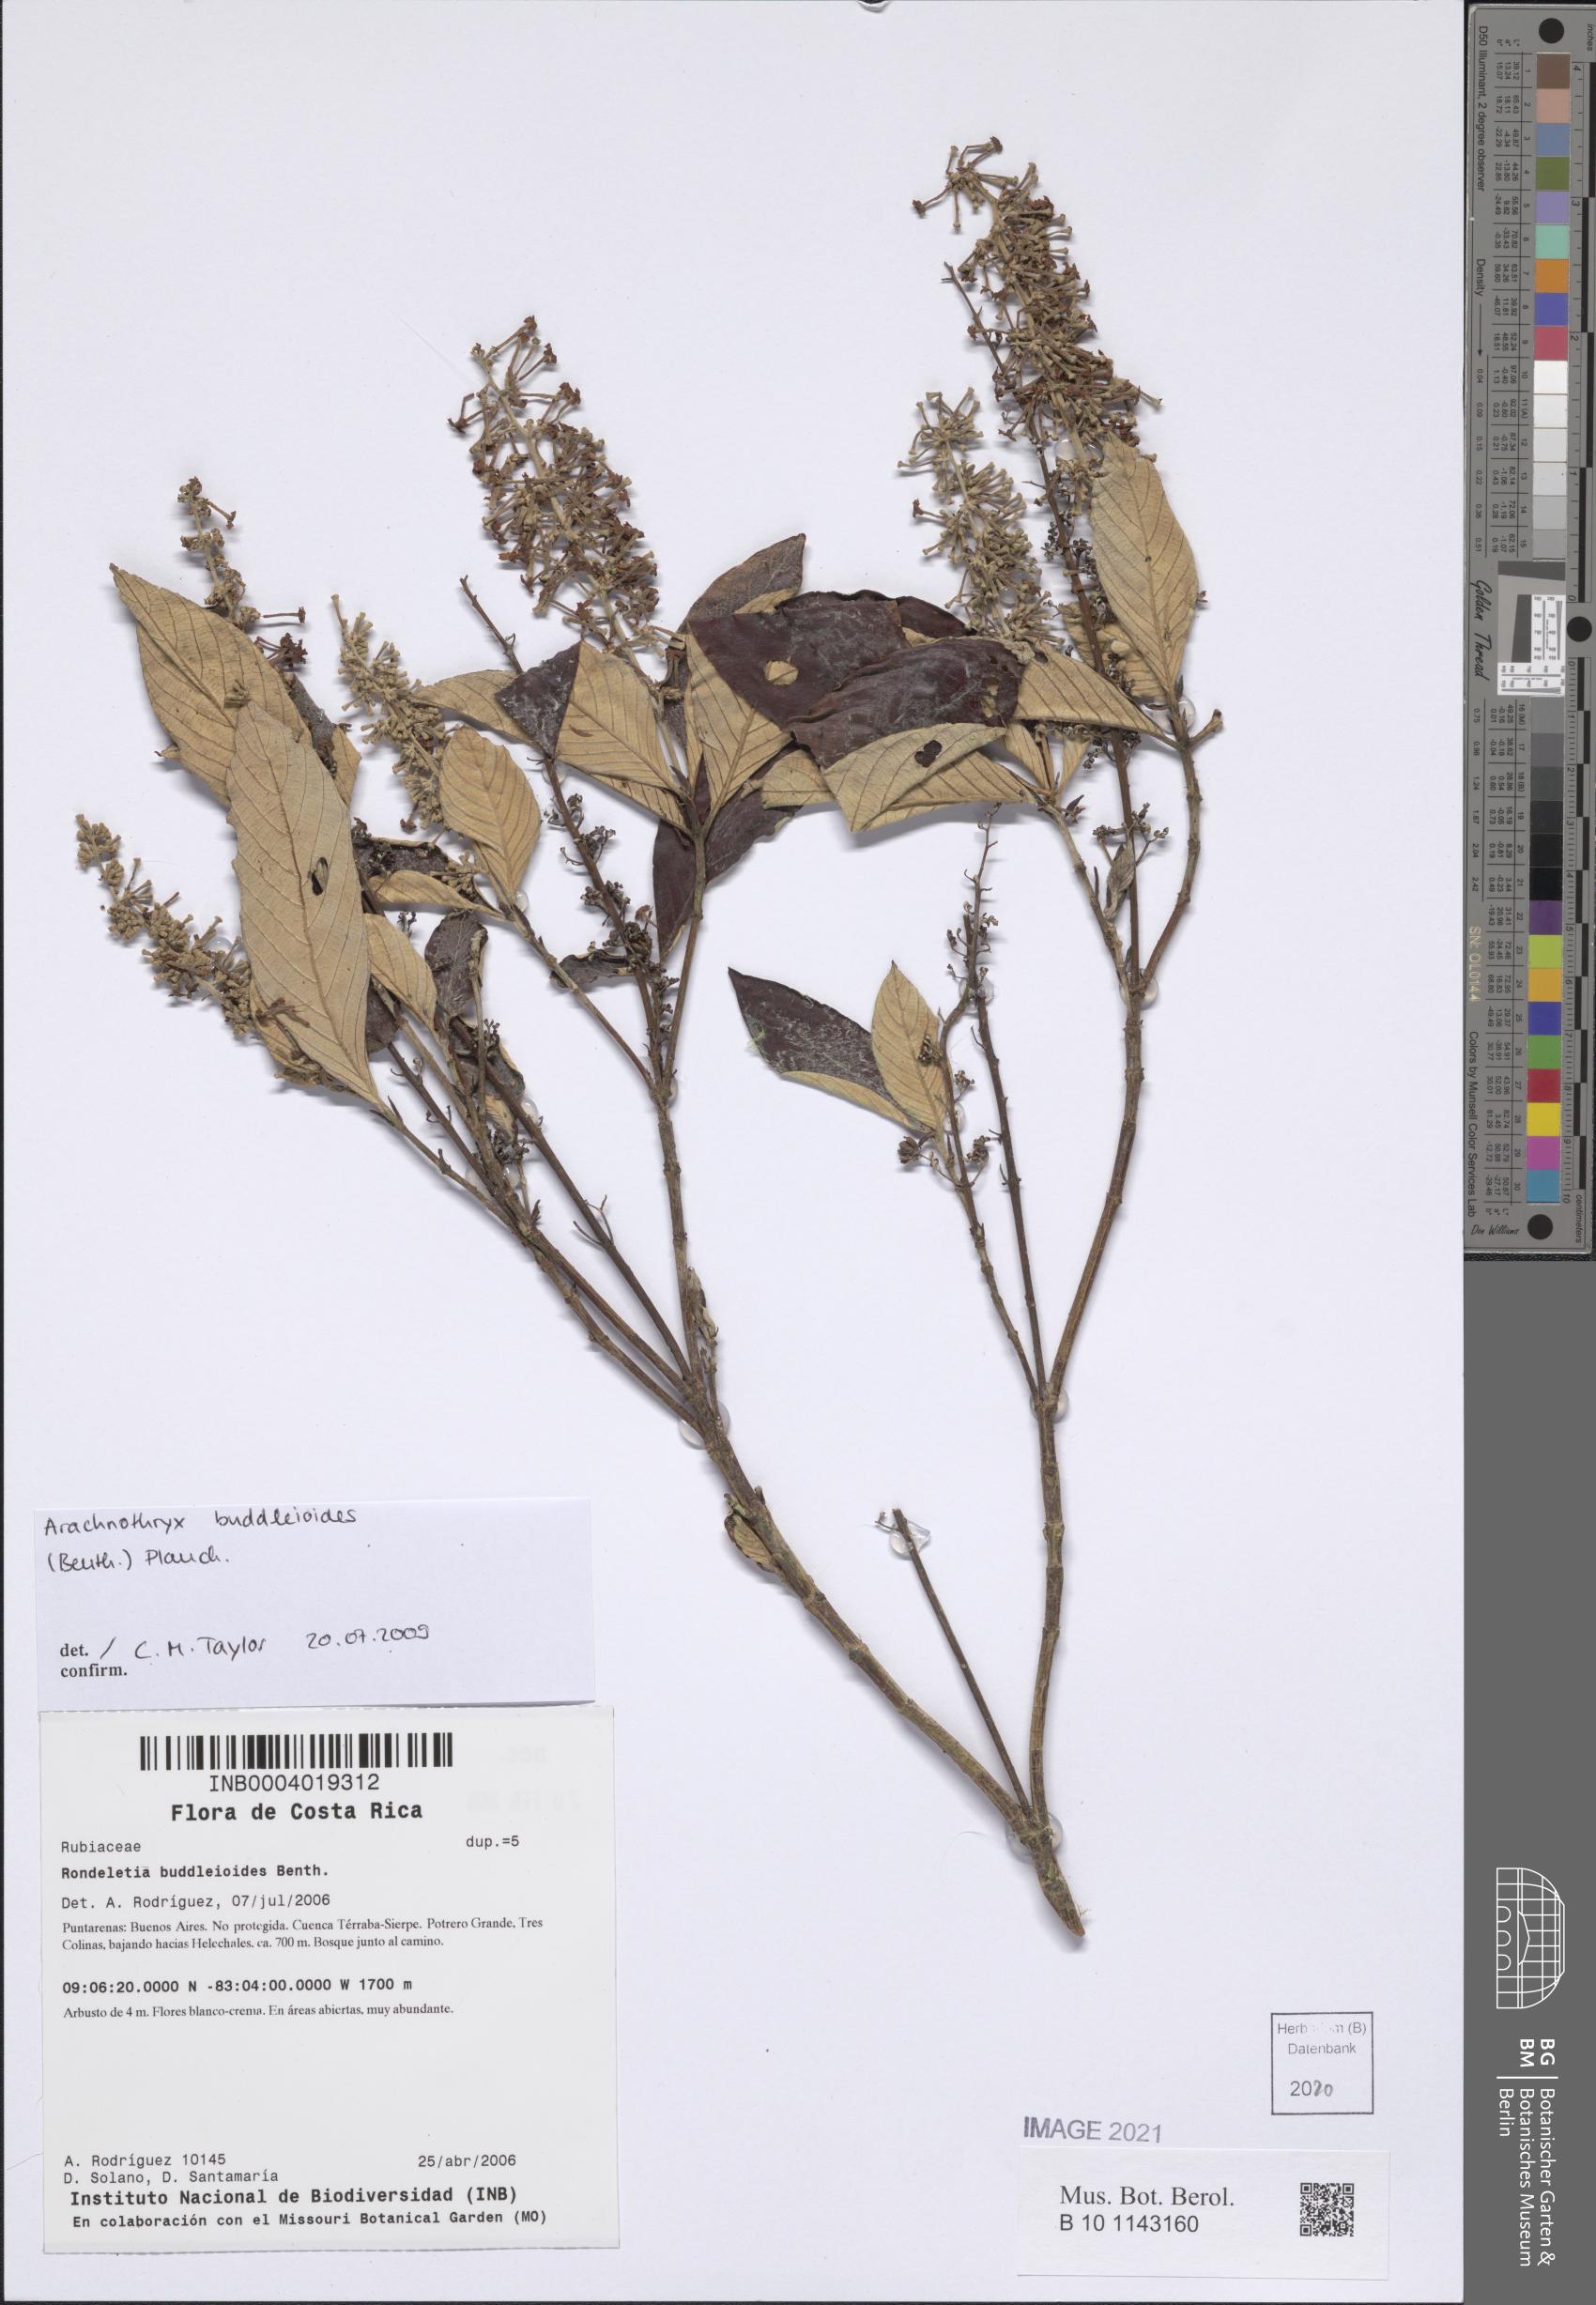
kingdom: Plantae
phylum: Tracheophyta
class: Magnoliopsida
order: Gentianales
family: Rubiaceae
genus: Arachnothryx
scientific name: Arachnothryx buddleioides
